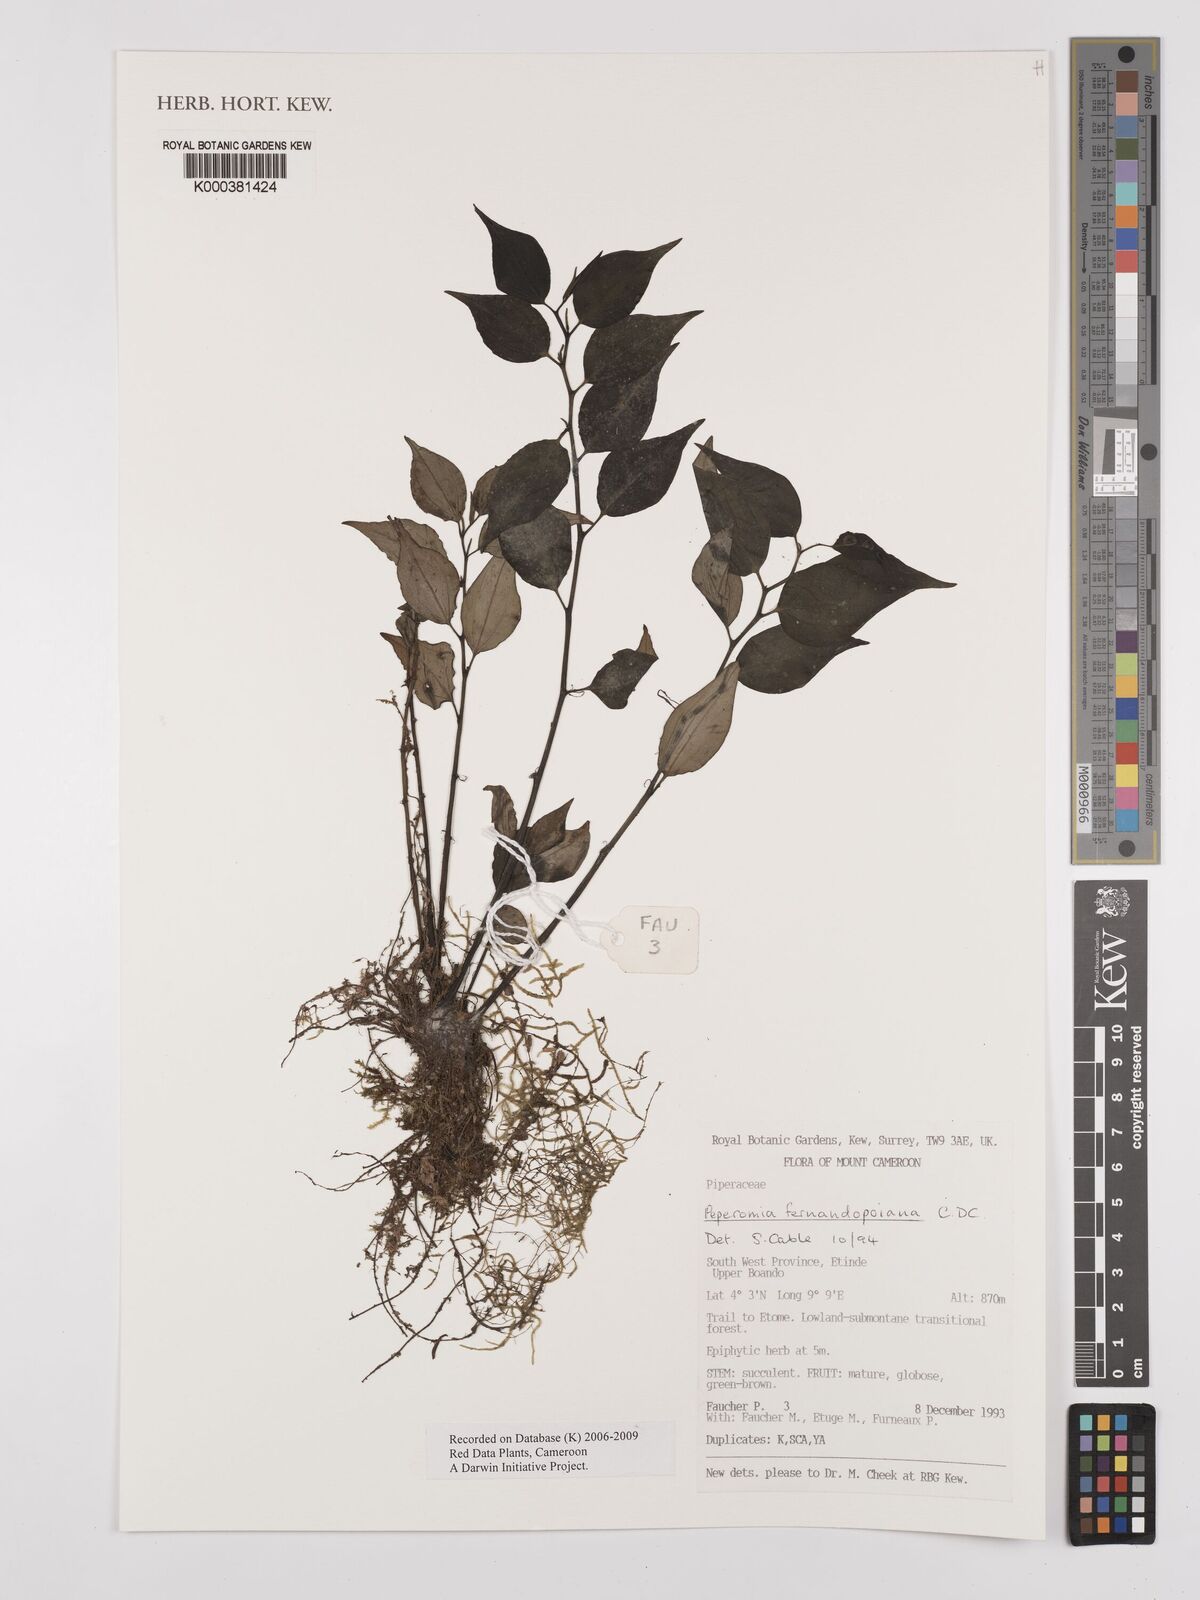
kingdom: Plantae
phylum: Tracheophyta
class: Magnoliopsida
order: Piperales
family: Piperaceae
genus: Peperomia
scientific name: Peperomia fernandopoiana
